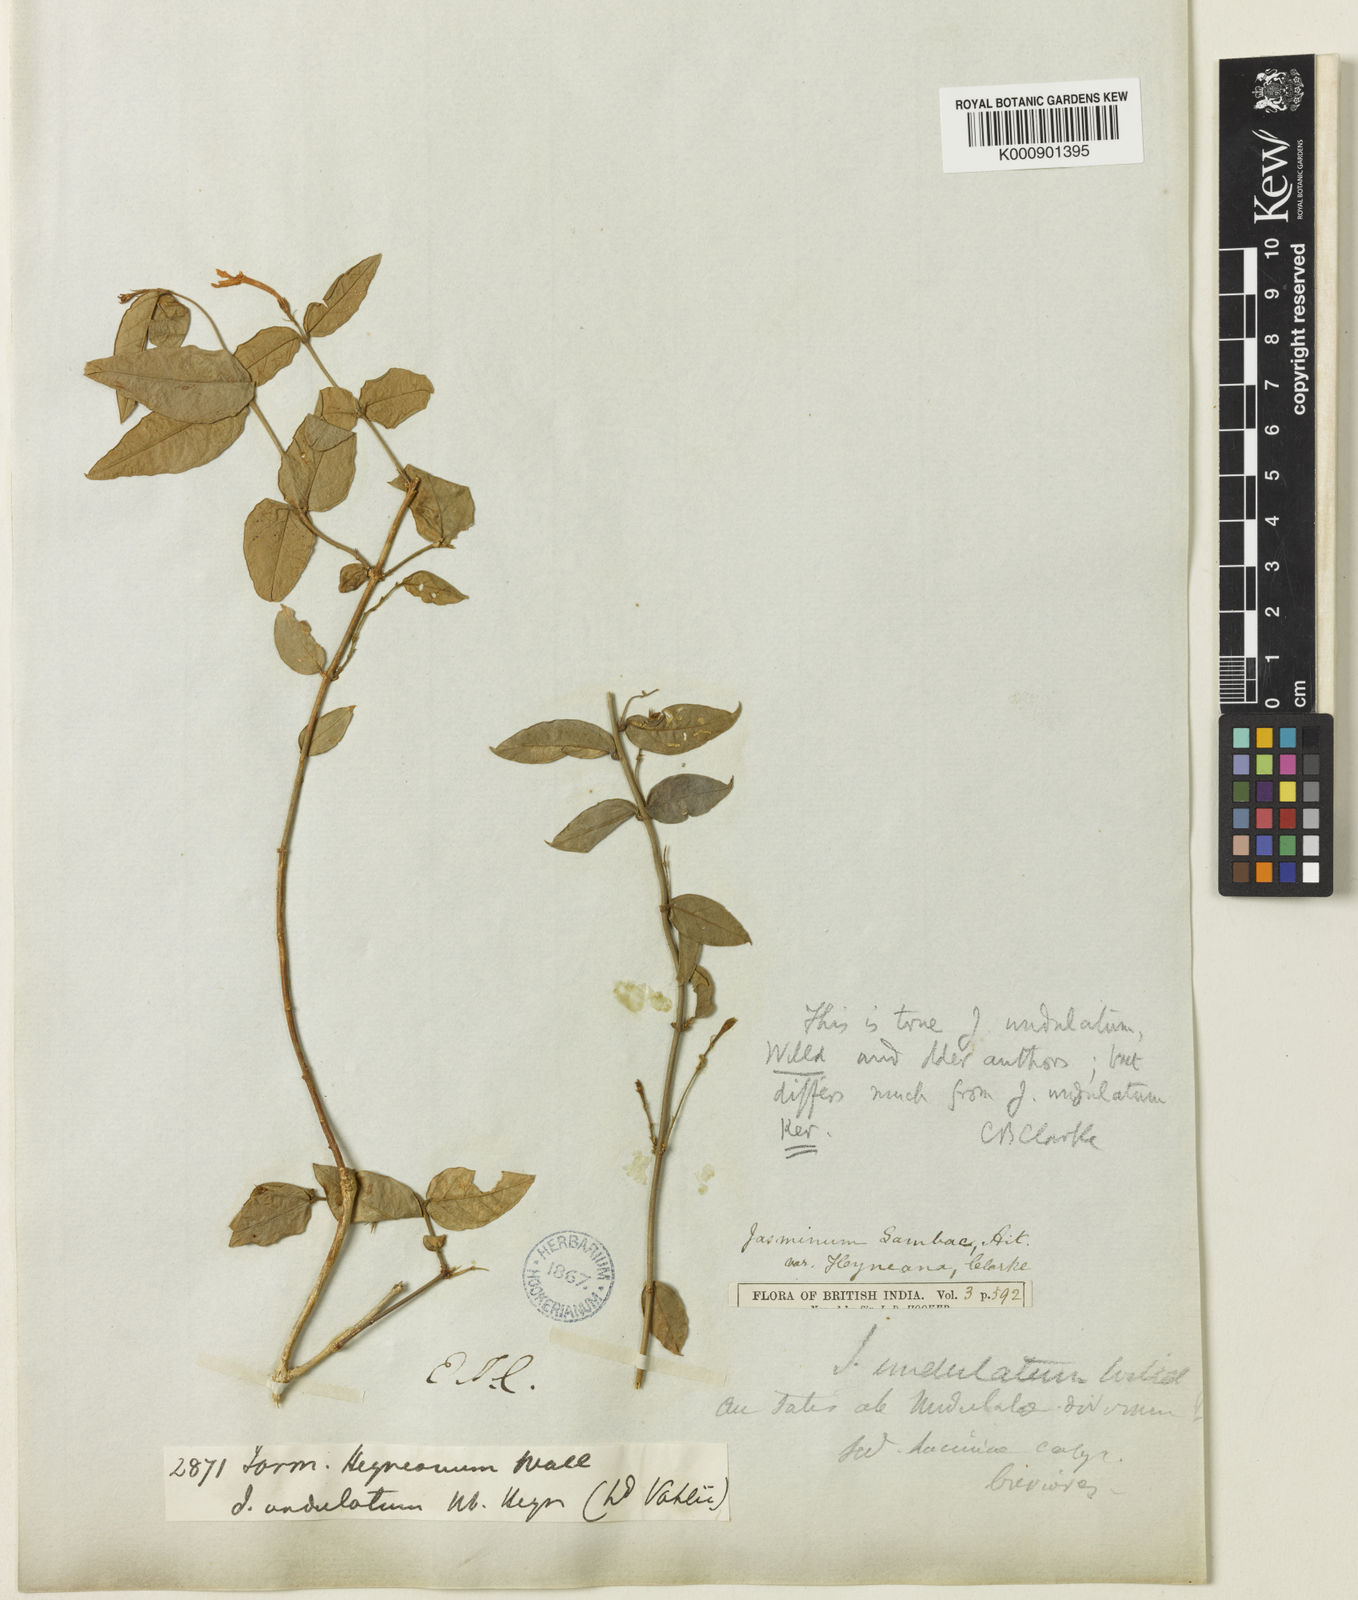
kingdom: Plantae
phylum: Tracheophyta
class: Magnoliopsida
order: Lamiales
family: Oleaceae
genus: Jasminum
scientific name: Jasminum sambac
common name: Arabian jasmine
